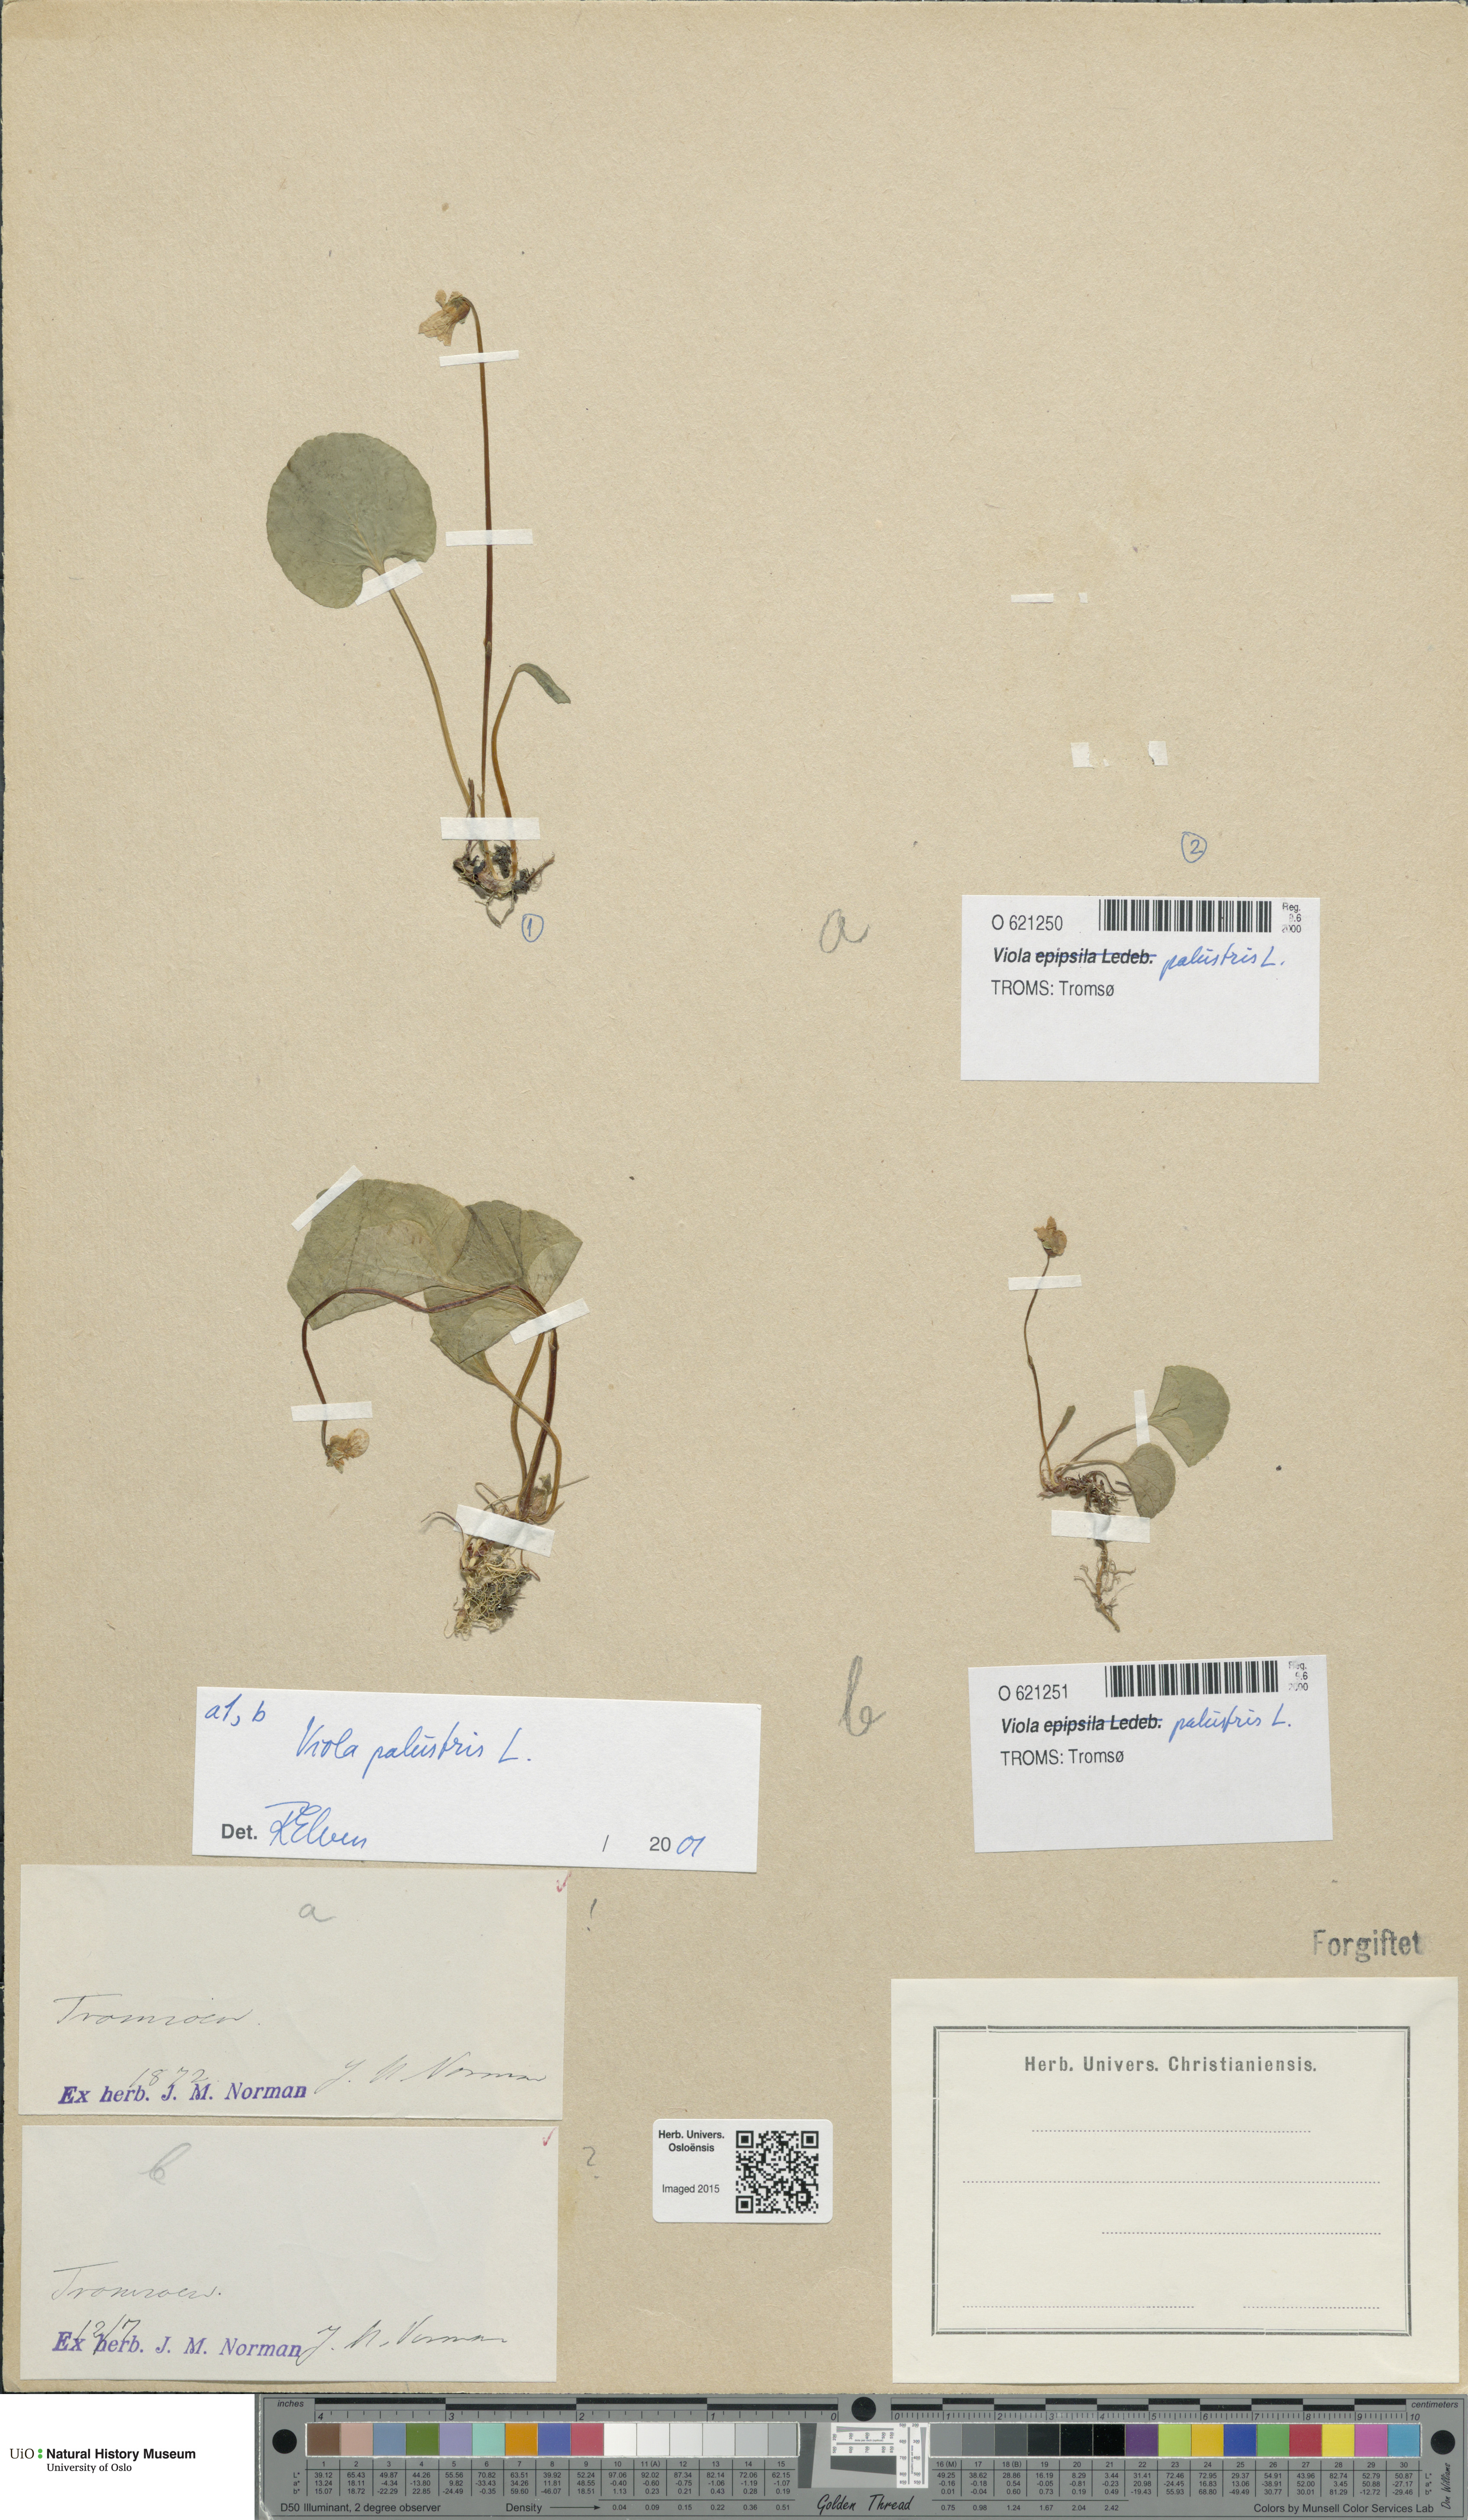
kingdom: Plantae
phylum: Tracheophyta
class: Magnoliopsida
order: Malpighiales
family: Violaceae
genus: Viola
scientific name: Viola palustris
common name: Marsh violet
